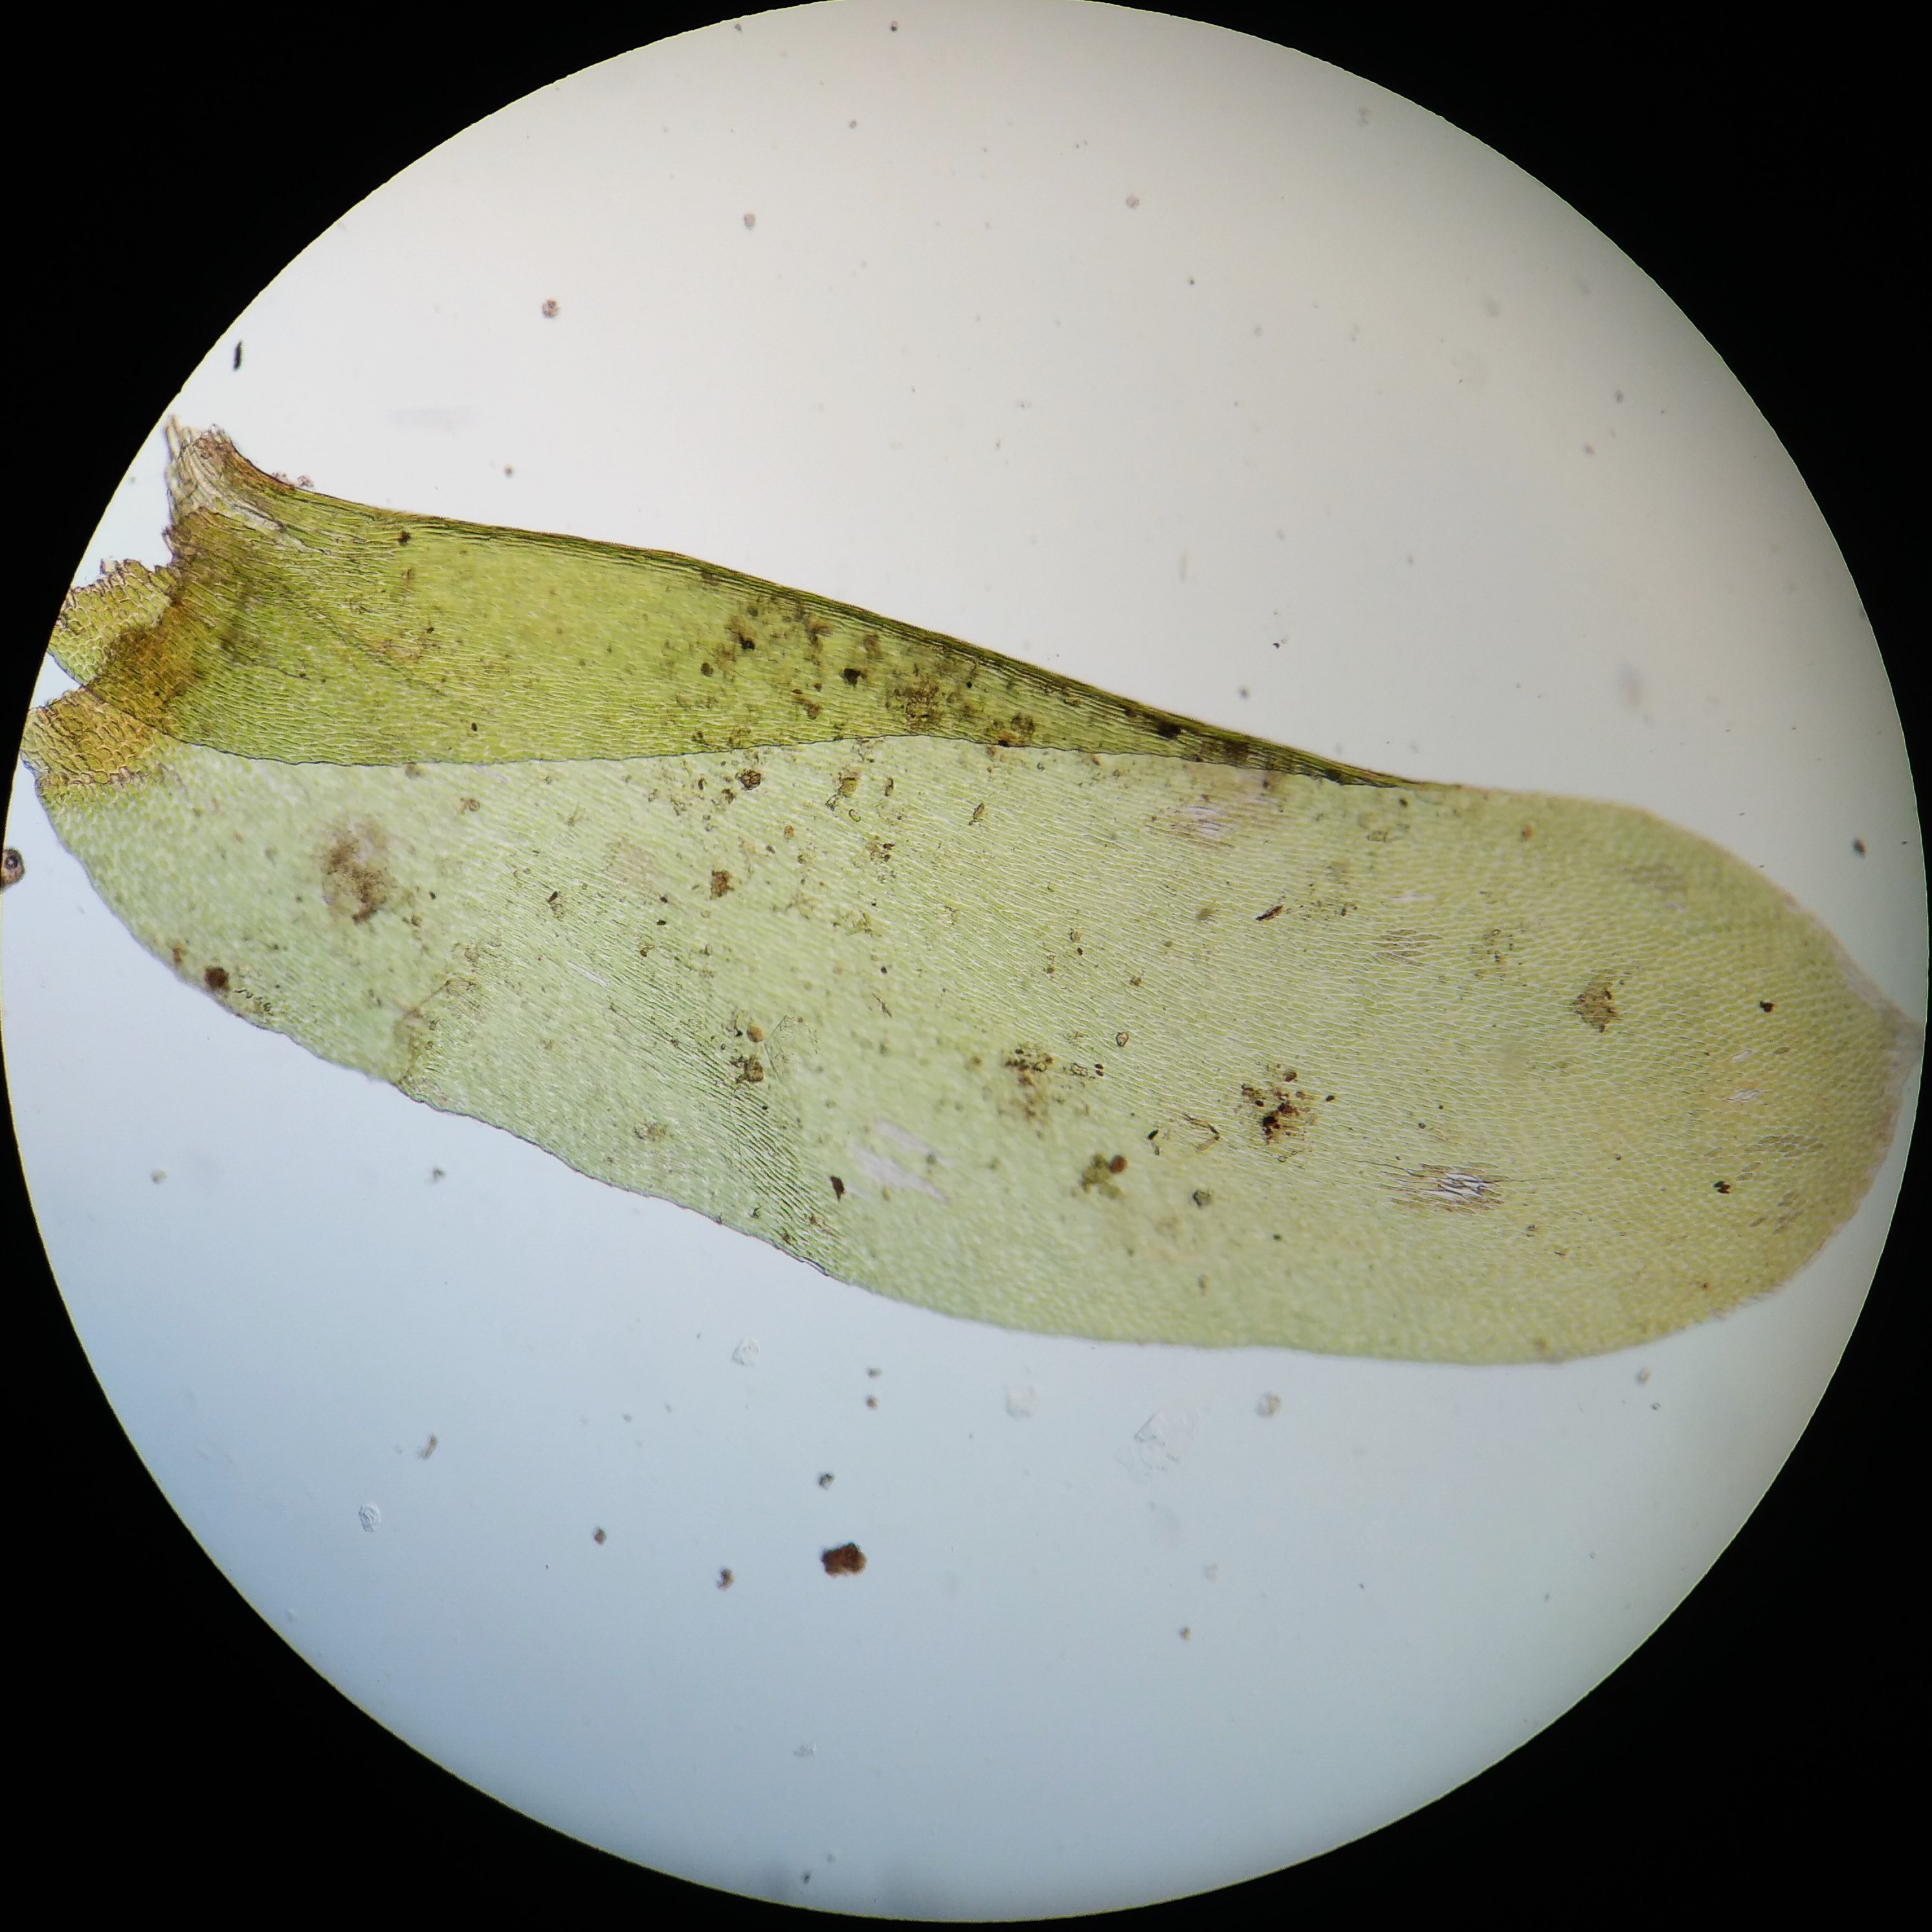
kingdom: Plantae
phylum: Bryophyta
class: Bryopsida
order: Hypnales
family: Neckeraceae
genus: Alleniella
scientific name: Alleniella complanata
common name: Almindelig fladmos
